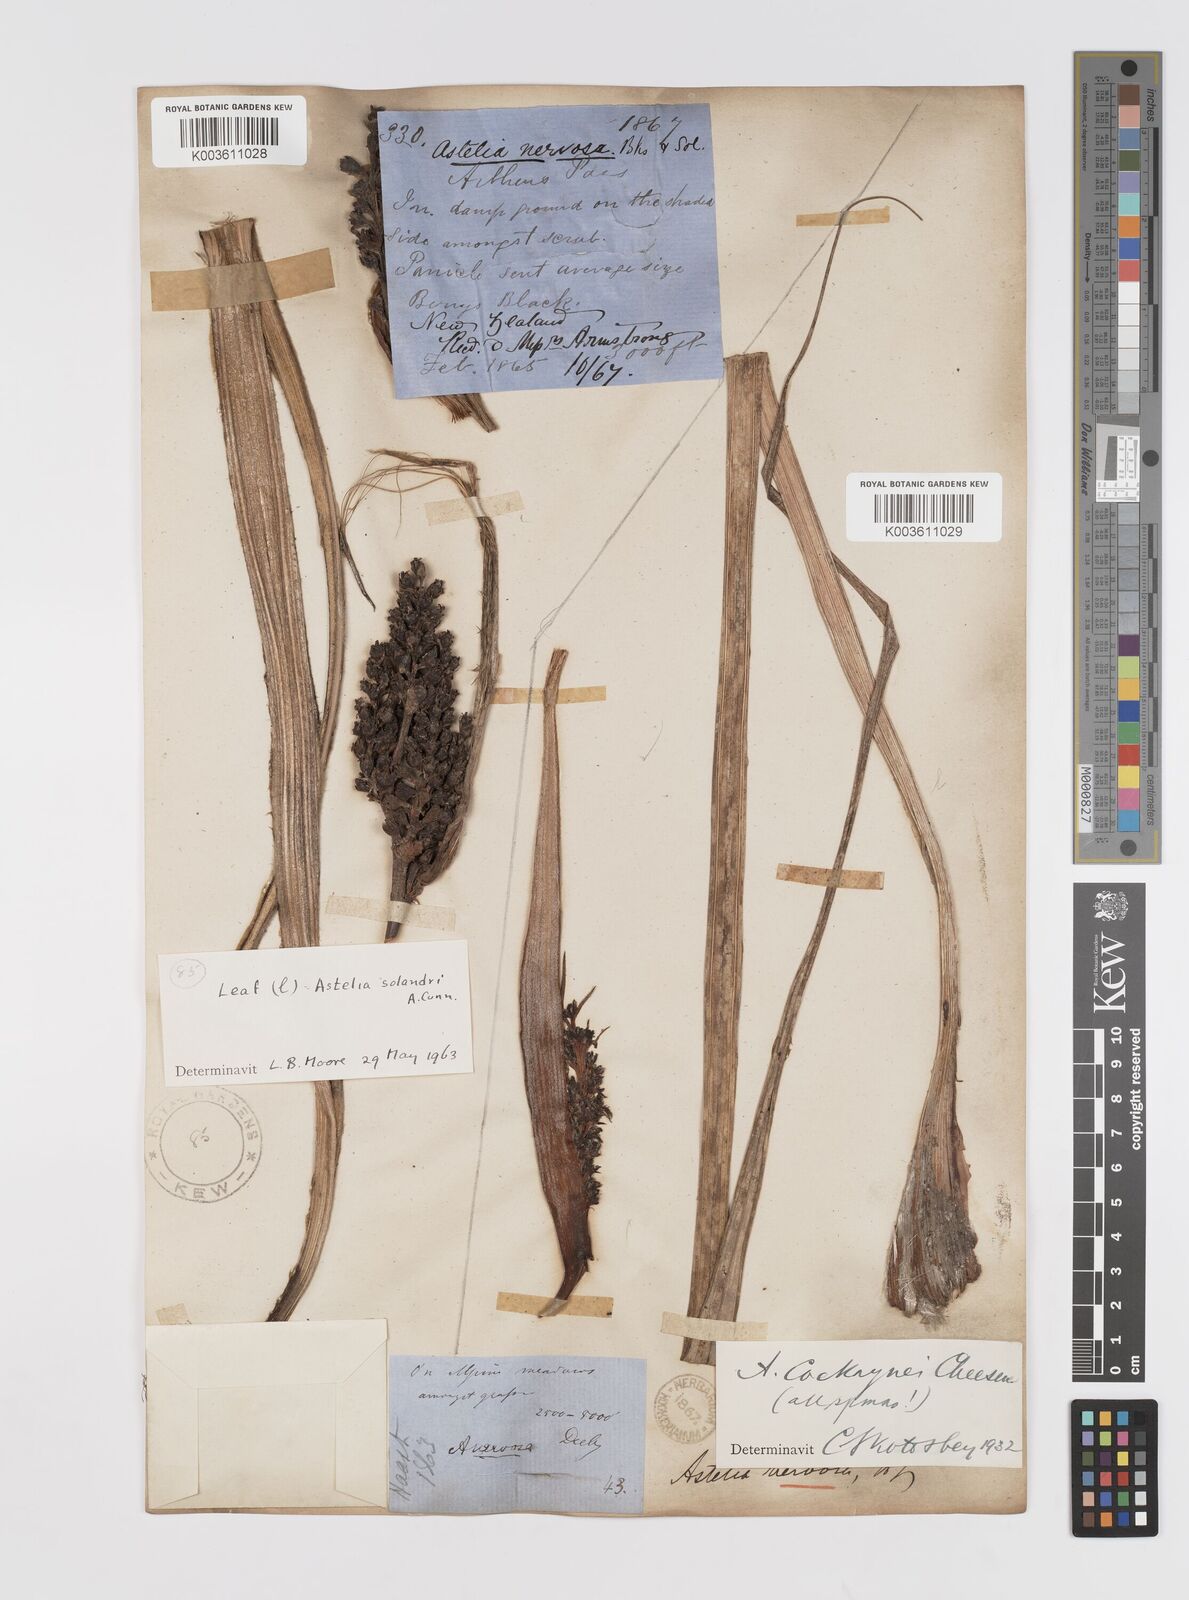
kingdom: Plantae
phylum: Tracheophyta
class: Liliopsida
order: Asparagales
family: Asteliaceae
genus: Astelia
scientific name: Astelia nervosa
